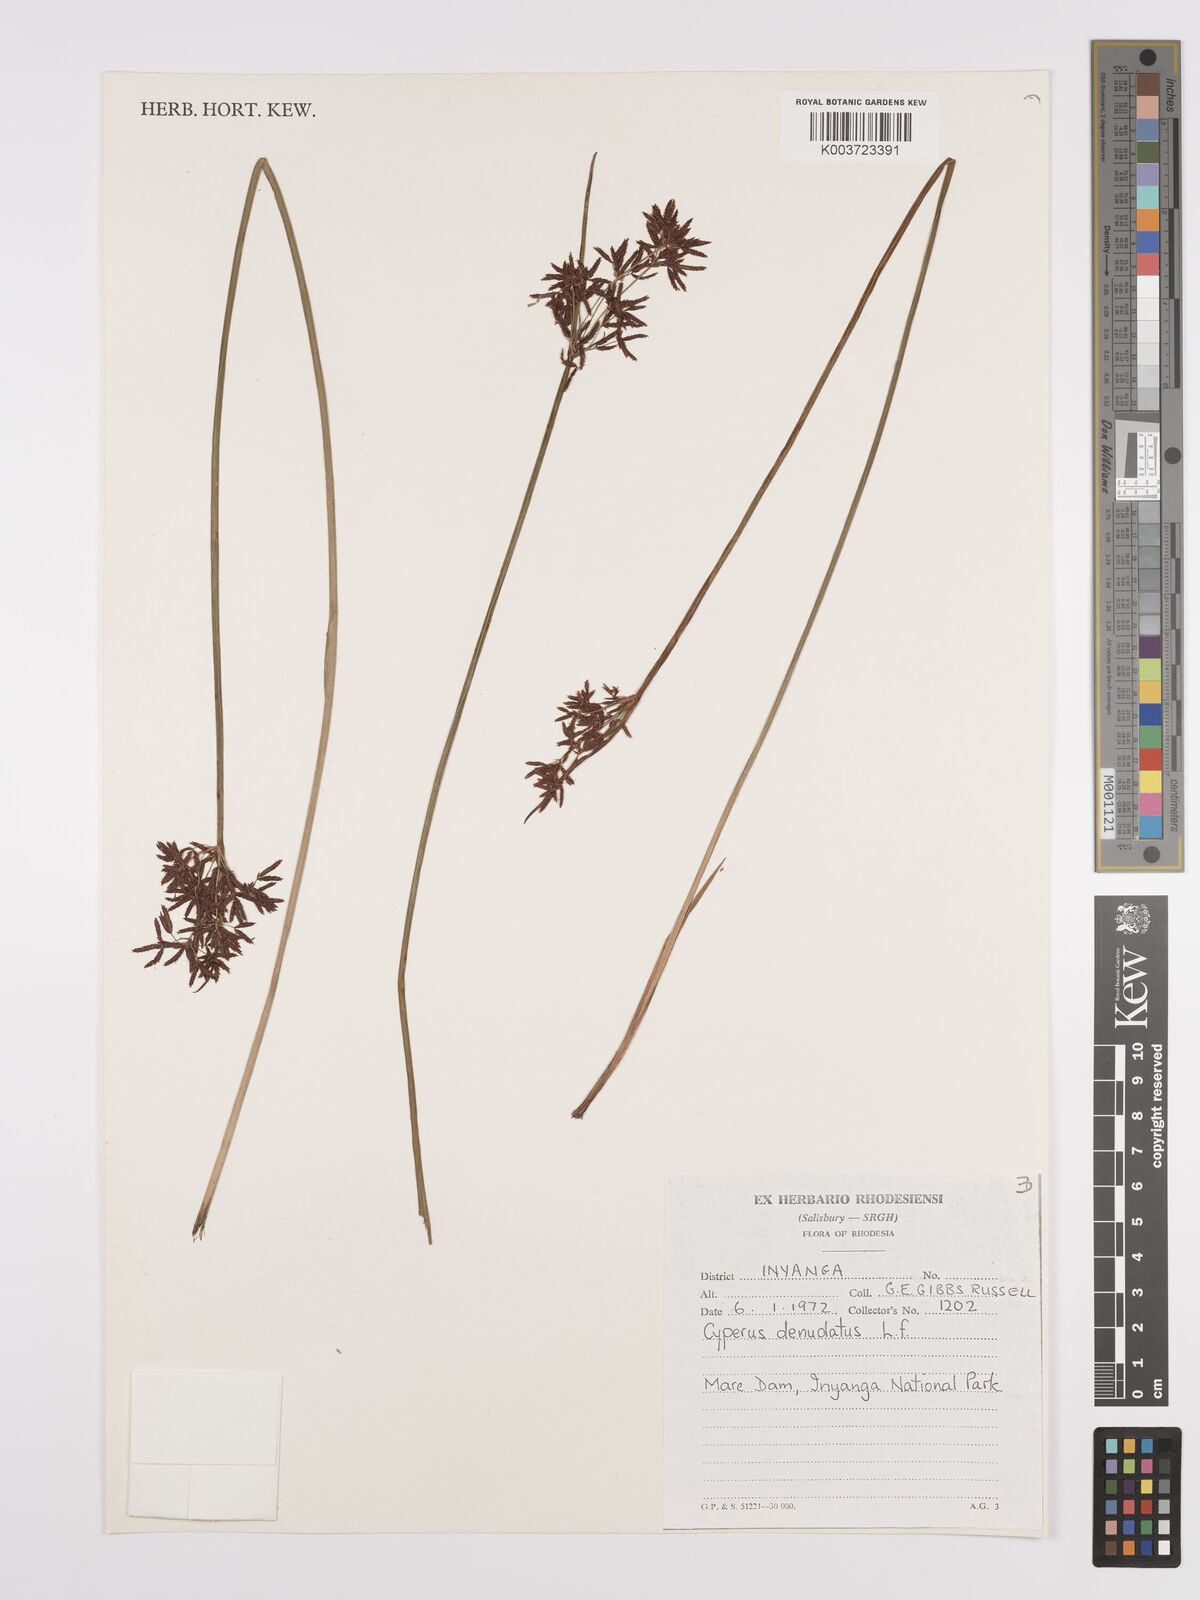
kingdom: Plantae
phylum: Tracheophyta
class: Liliopsida
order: Poales
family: Cyperaceae
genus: Cyperus
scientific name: Cyperus denudatus
